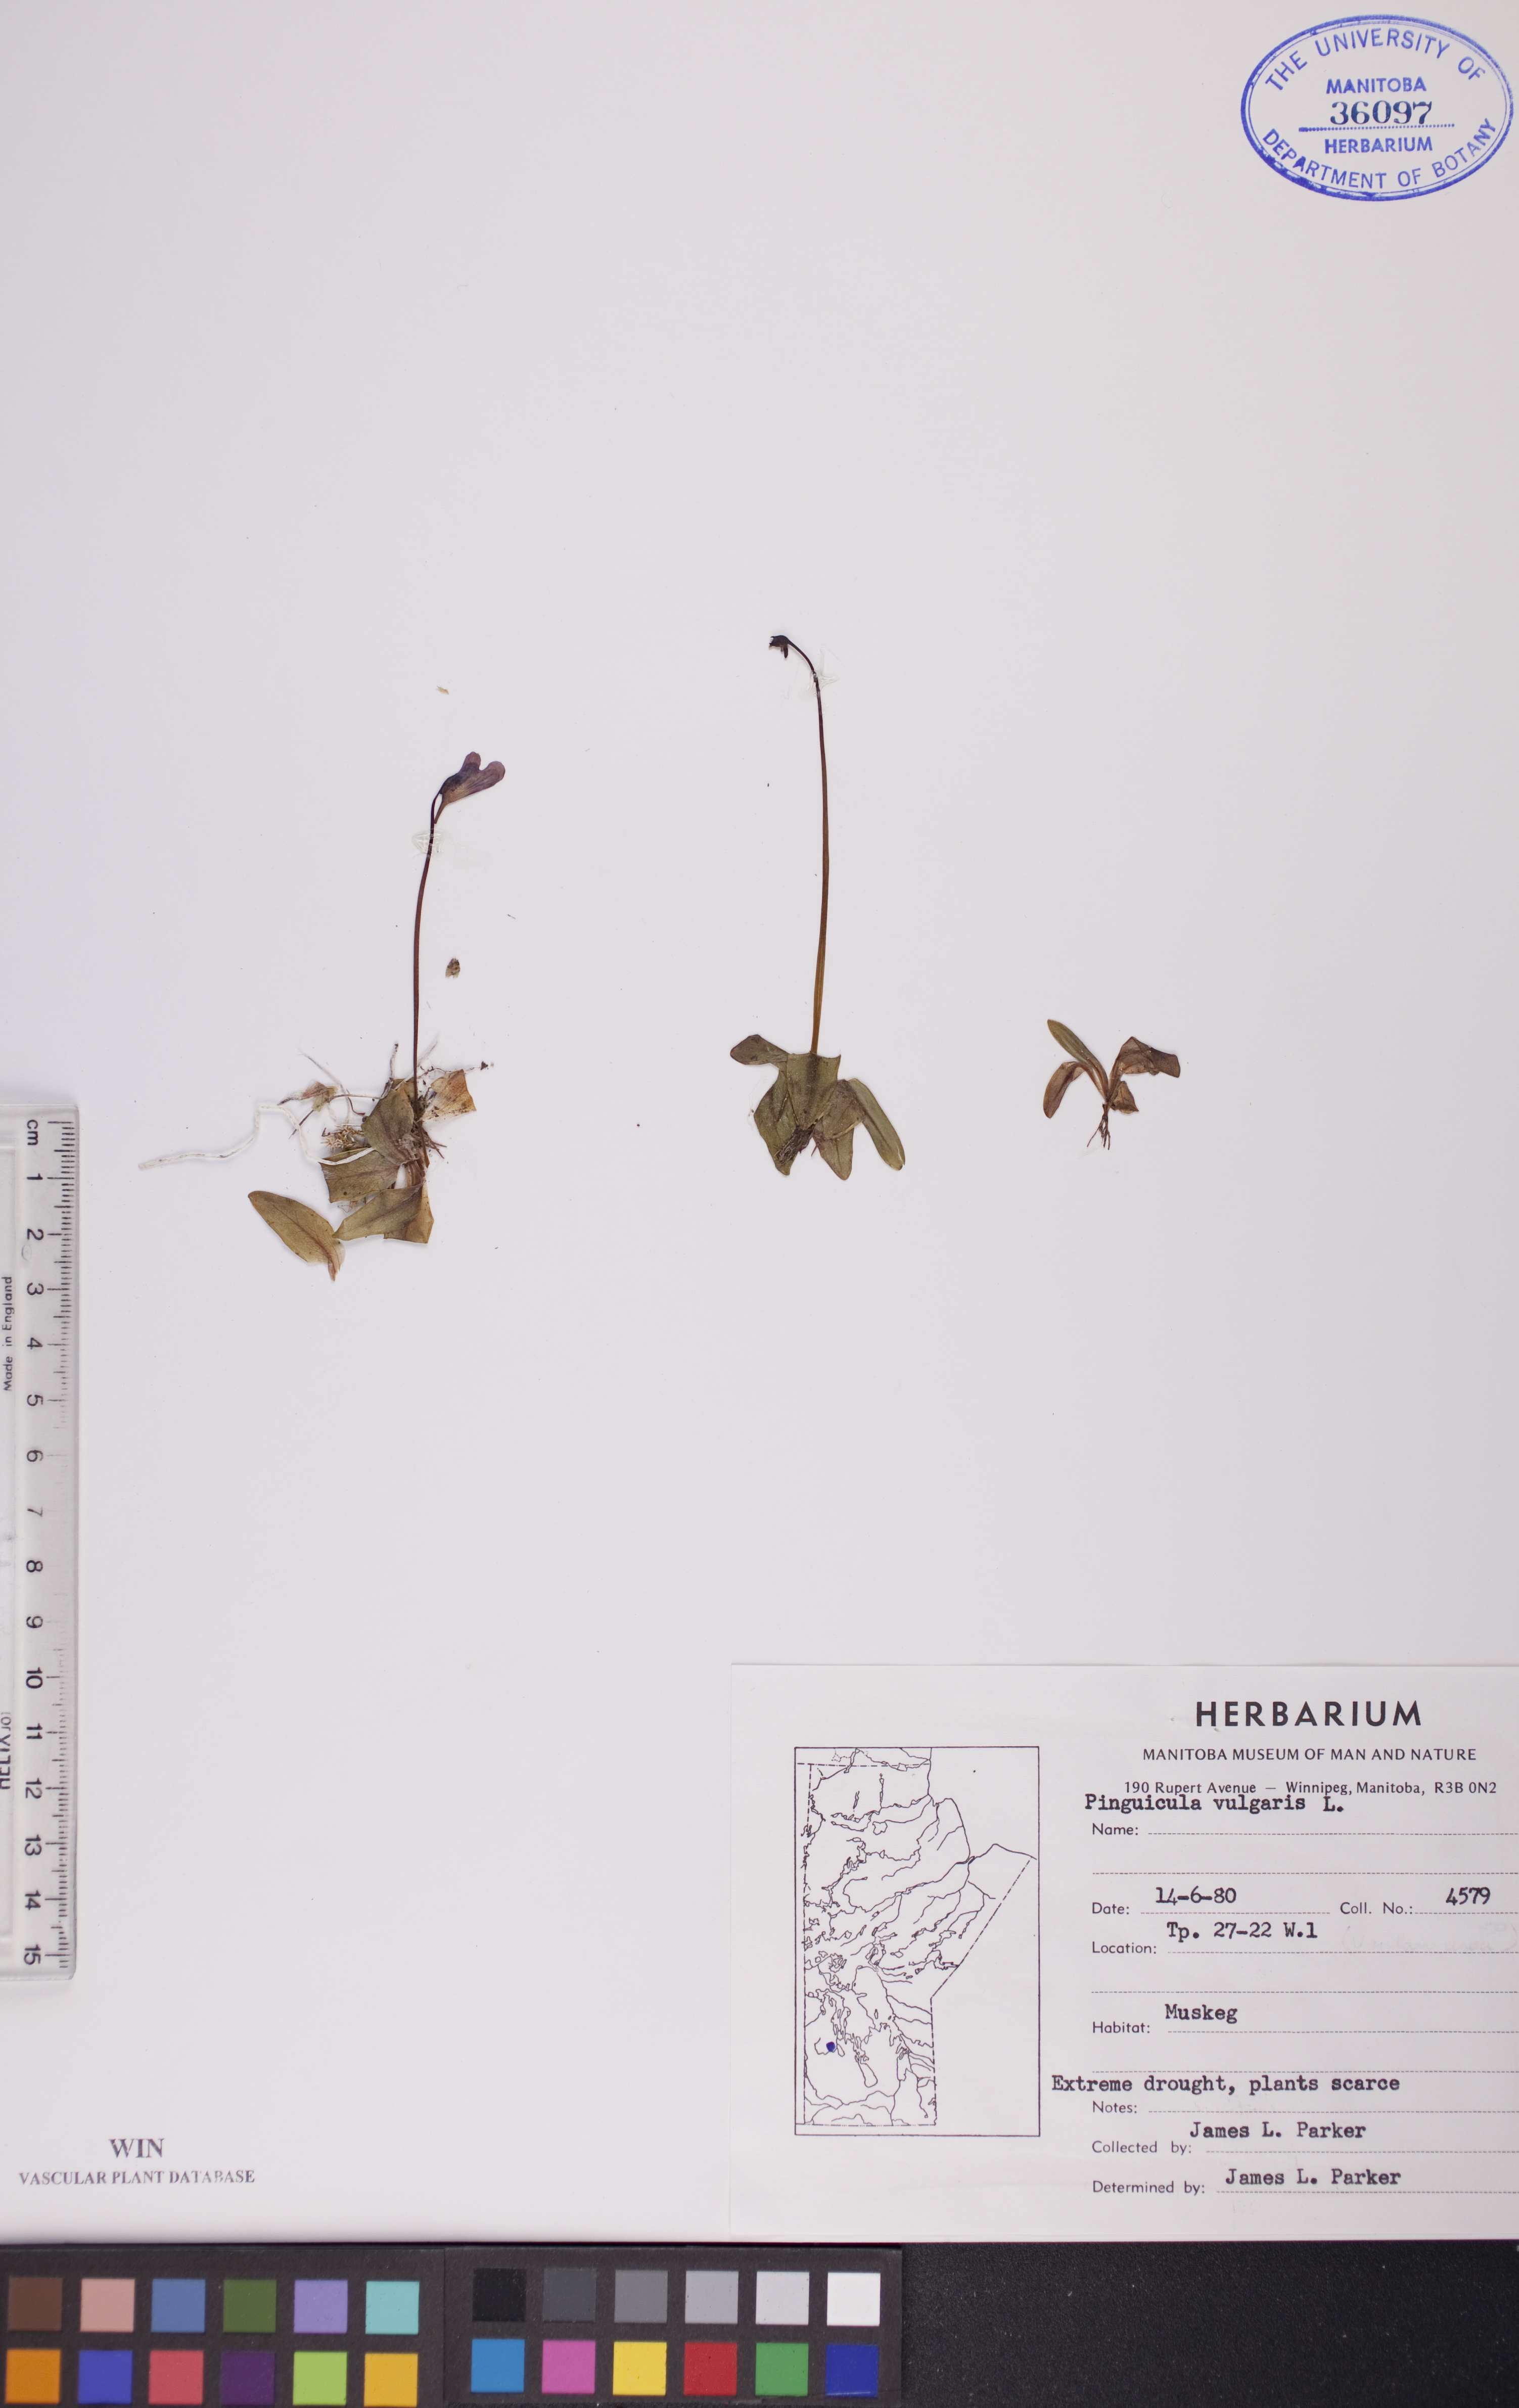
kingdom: Plantae
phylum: Tracheophyta
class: Magnoliopsida
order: Lamiales
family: Lentibulariaceae
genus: Pinguicula
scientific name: Pinguicula vulgaris
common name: Common butterwort
